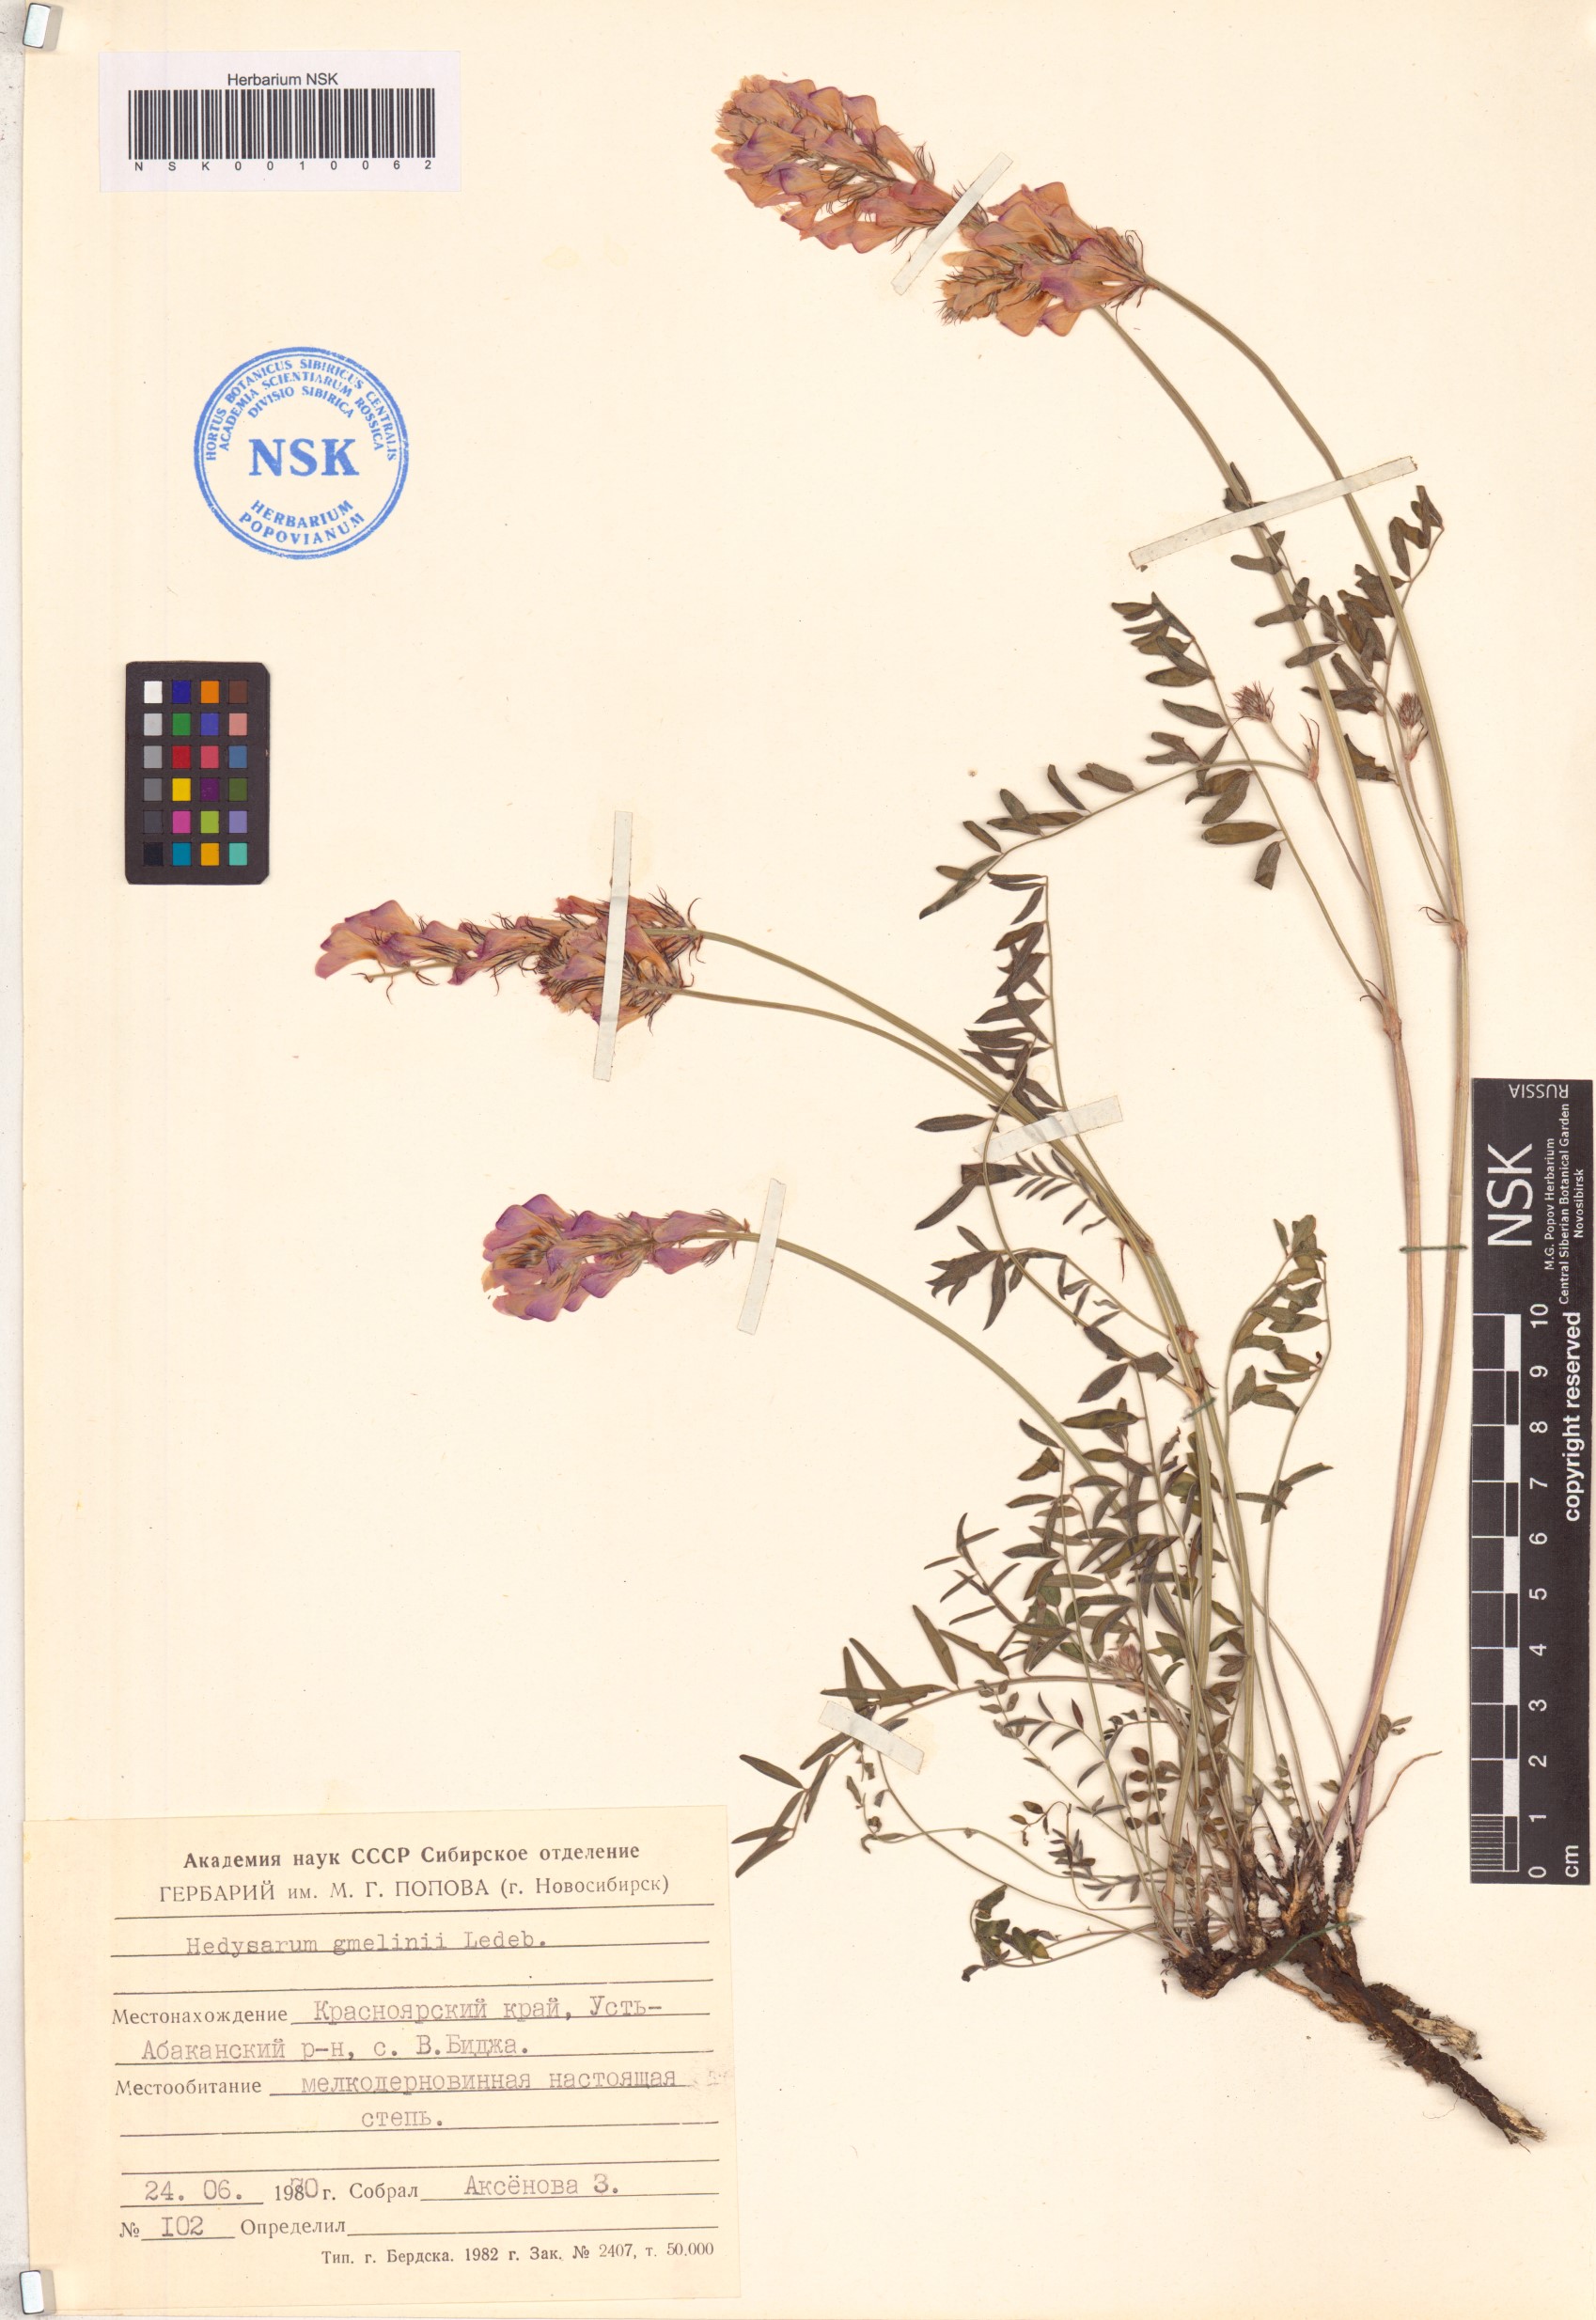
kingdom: Plantae
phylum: Tracheophyta
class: Magnoliopsida
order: Fabales
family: Fabaceae
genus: Hedysarum
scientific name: Hedysarum gmelinii
